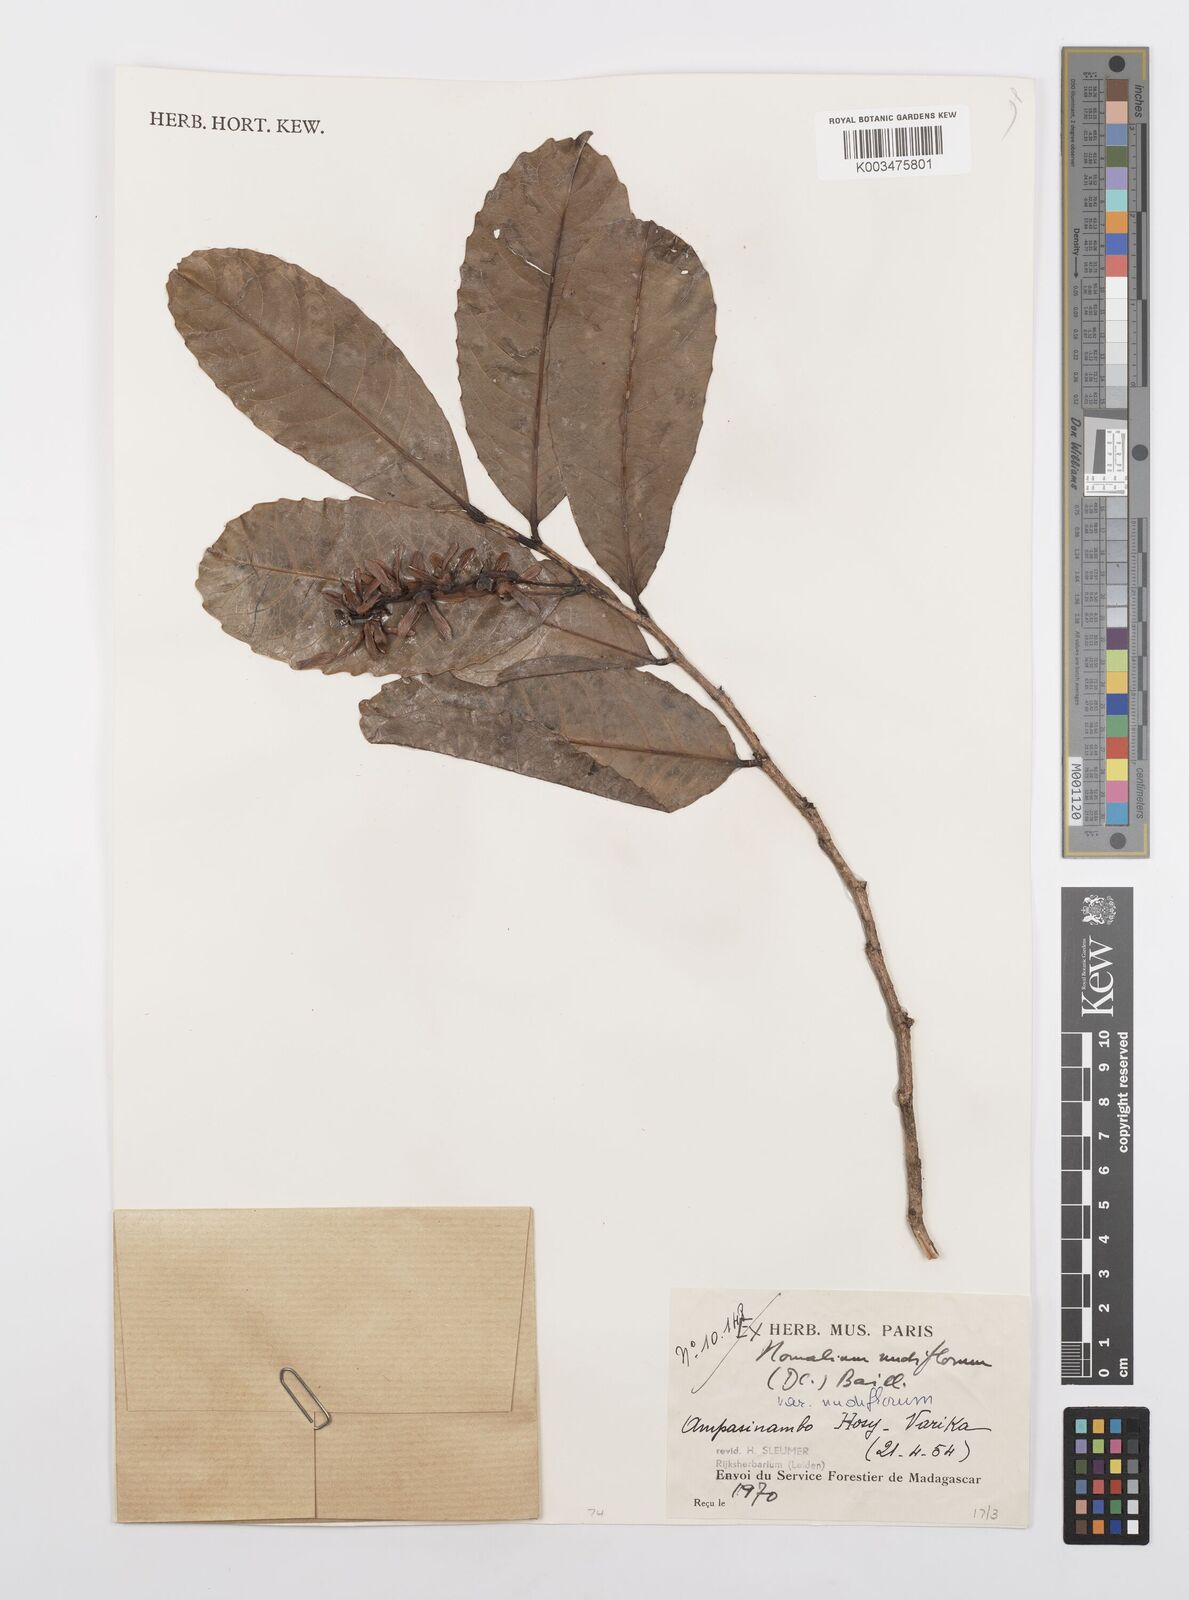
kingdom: Plantae
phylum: Tracheophyta
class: Magnoliopsida
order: Malpighiales
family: Salicaceae
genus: Homalium
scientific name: Homalium nudiflorum
